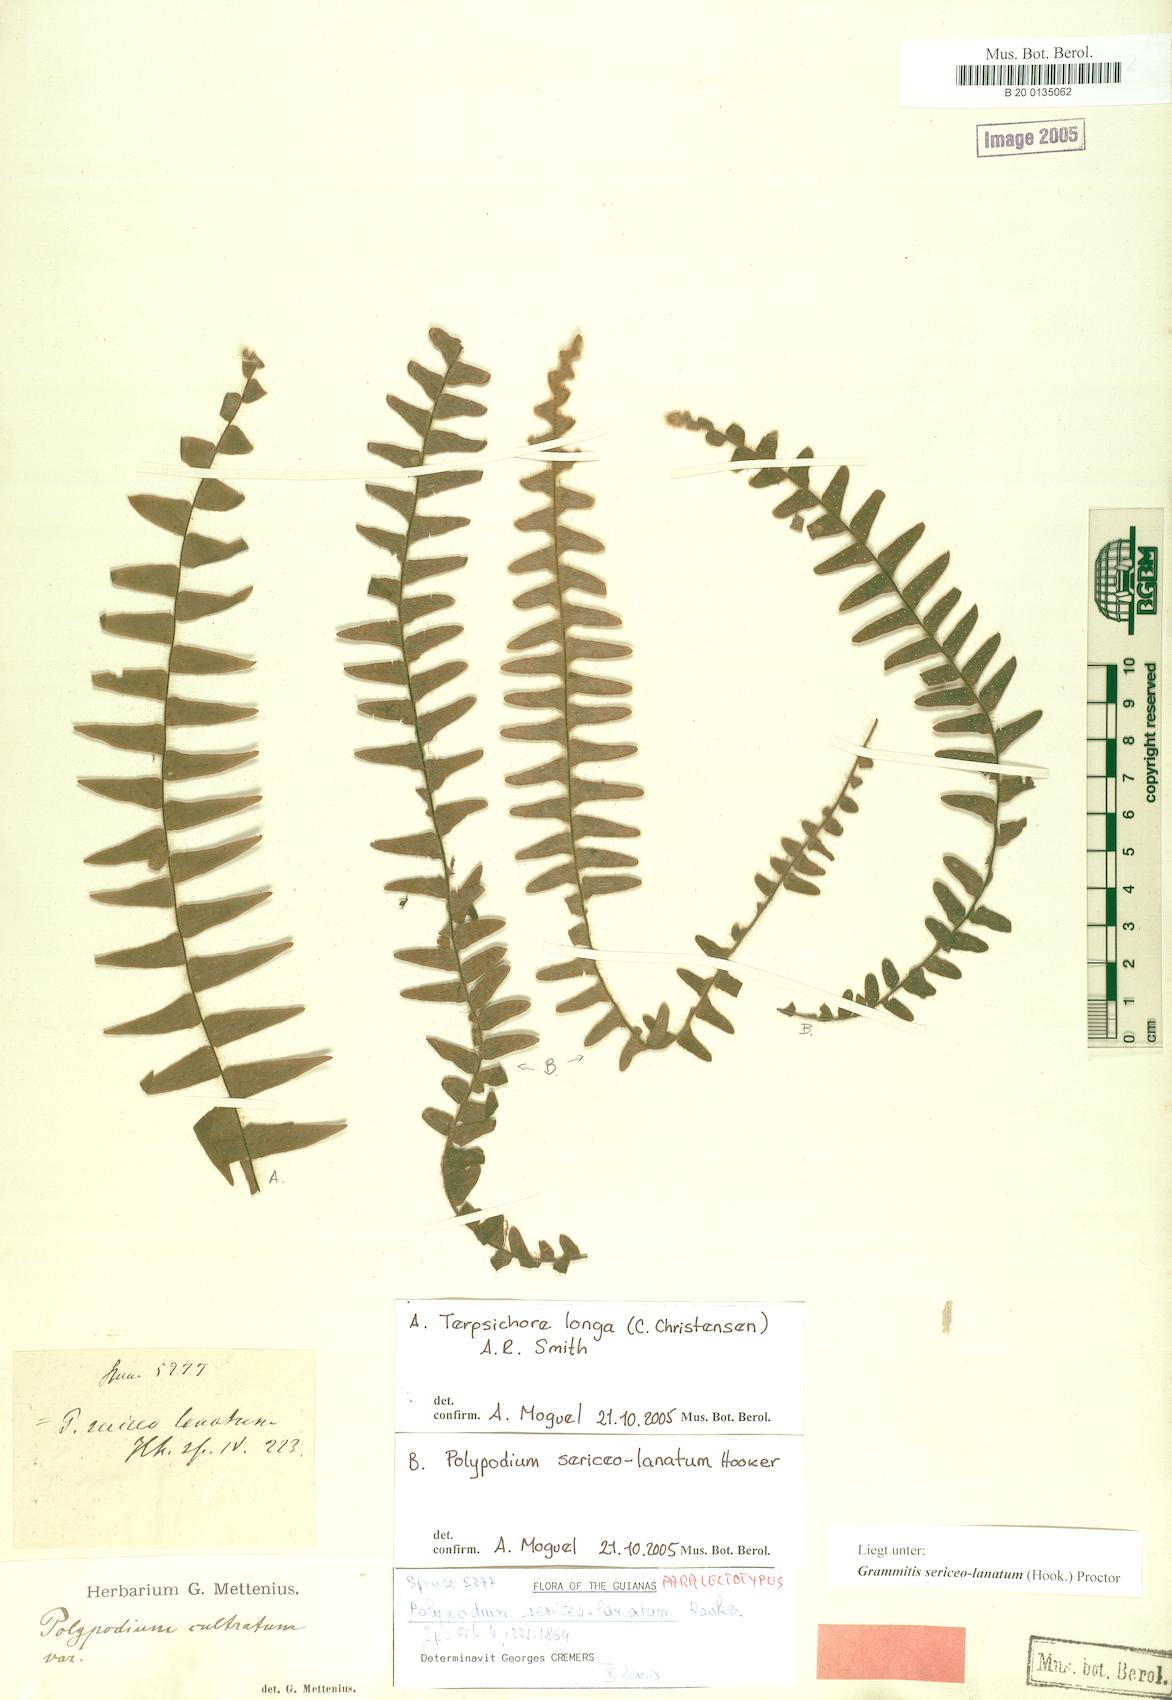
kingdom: Plantae
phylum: Tracheophyta
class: Polypodiopsida
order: Polypodiales
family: Polypodiaceae
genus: Alansmia
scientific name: Alansmia lanigera
